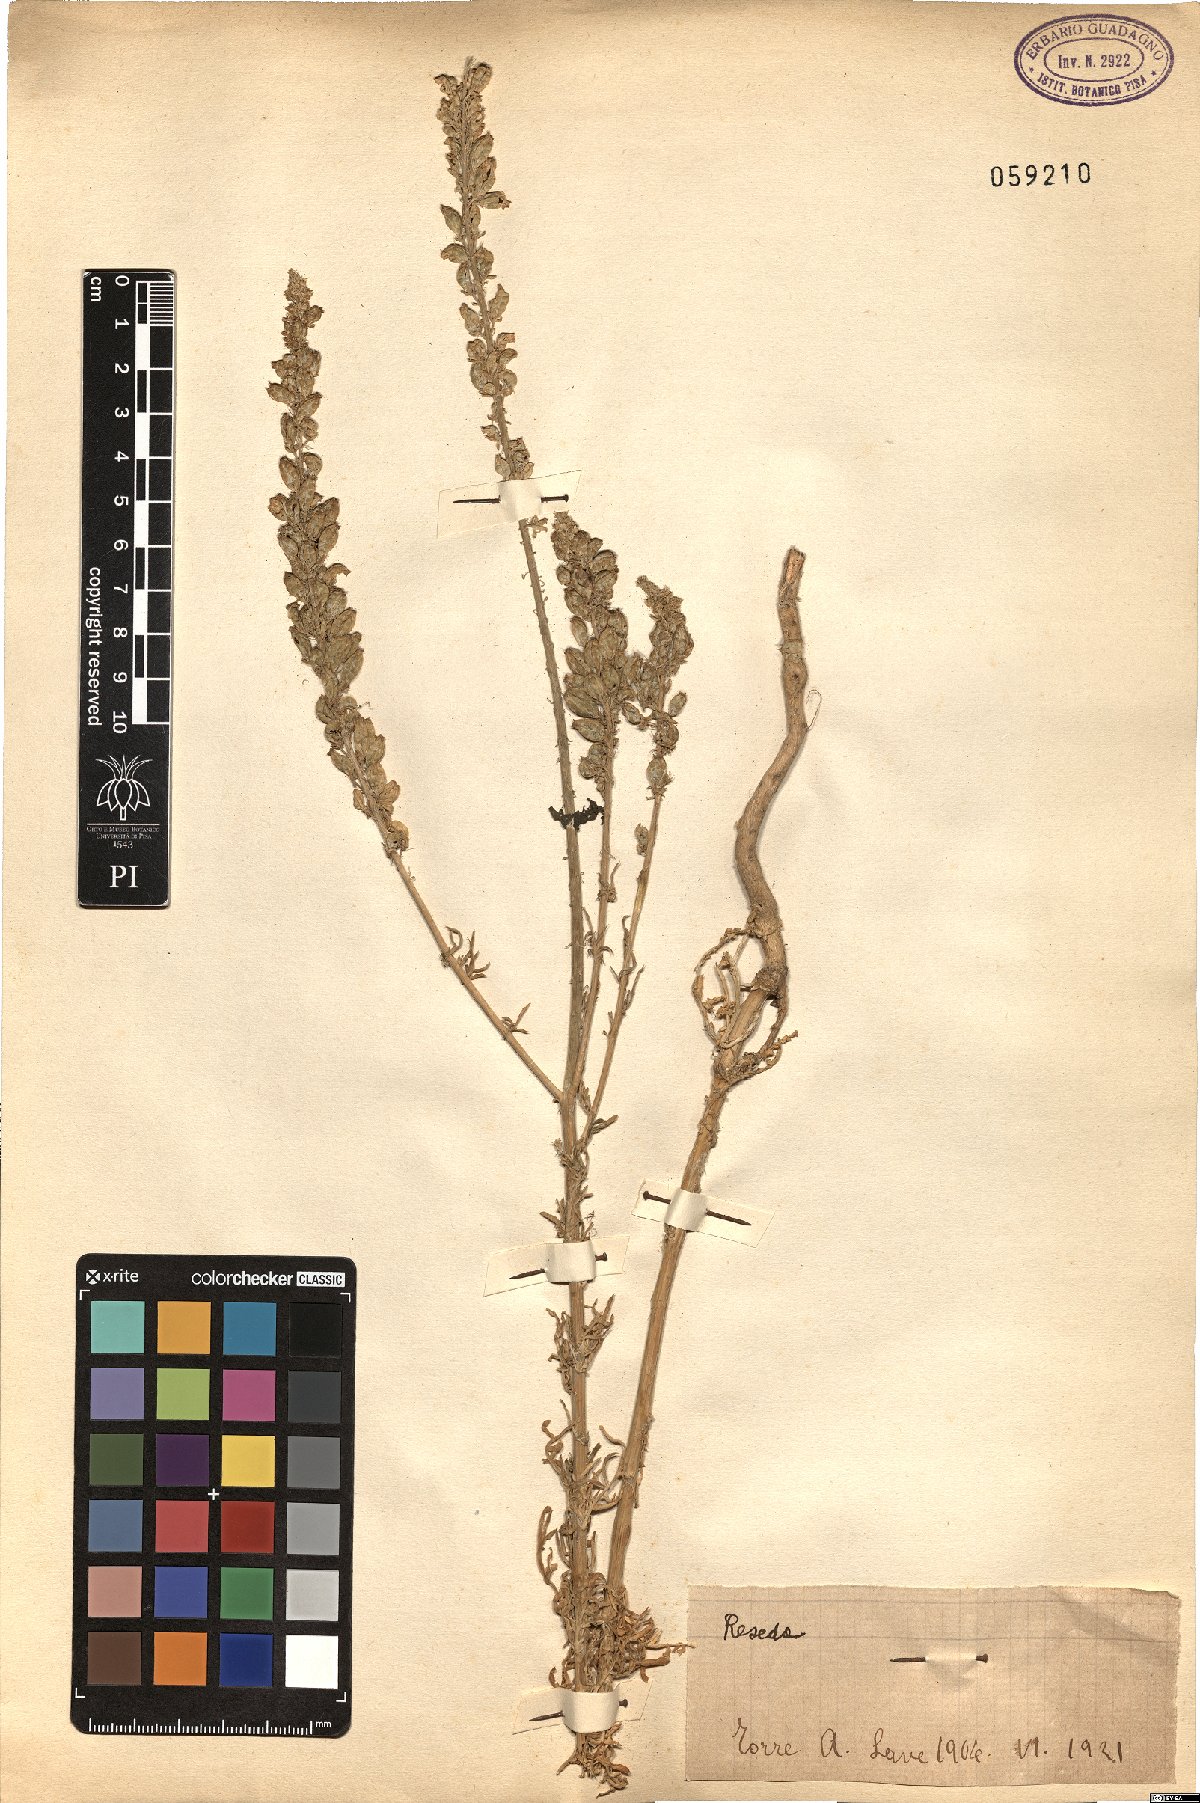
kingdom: Plantae
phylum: Tracheophyta
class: Magnoliopsida
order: Brassicales
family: Resedaceae
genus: Reseda
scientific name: Reseda
